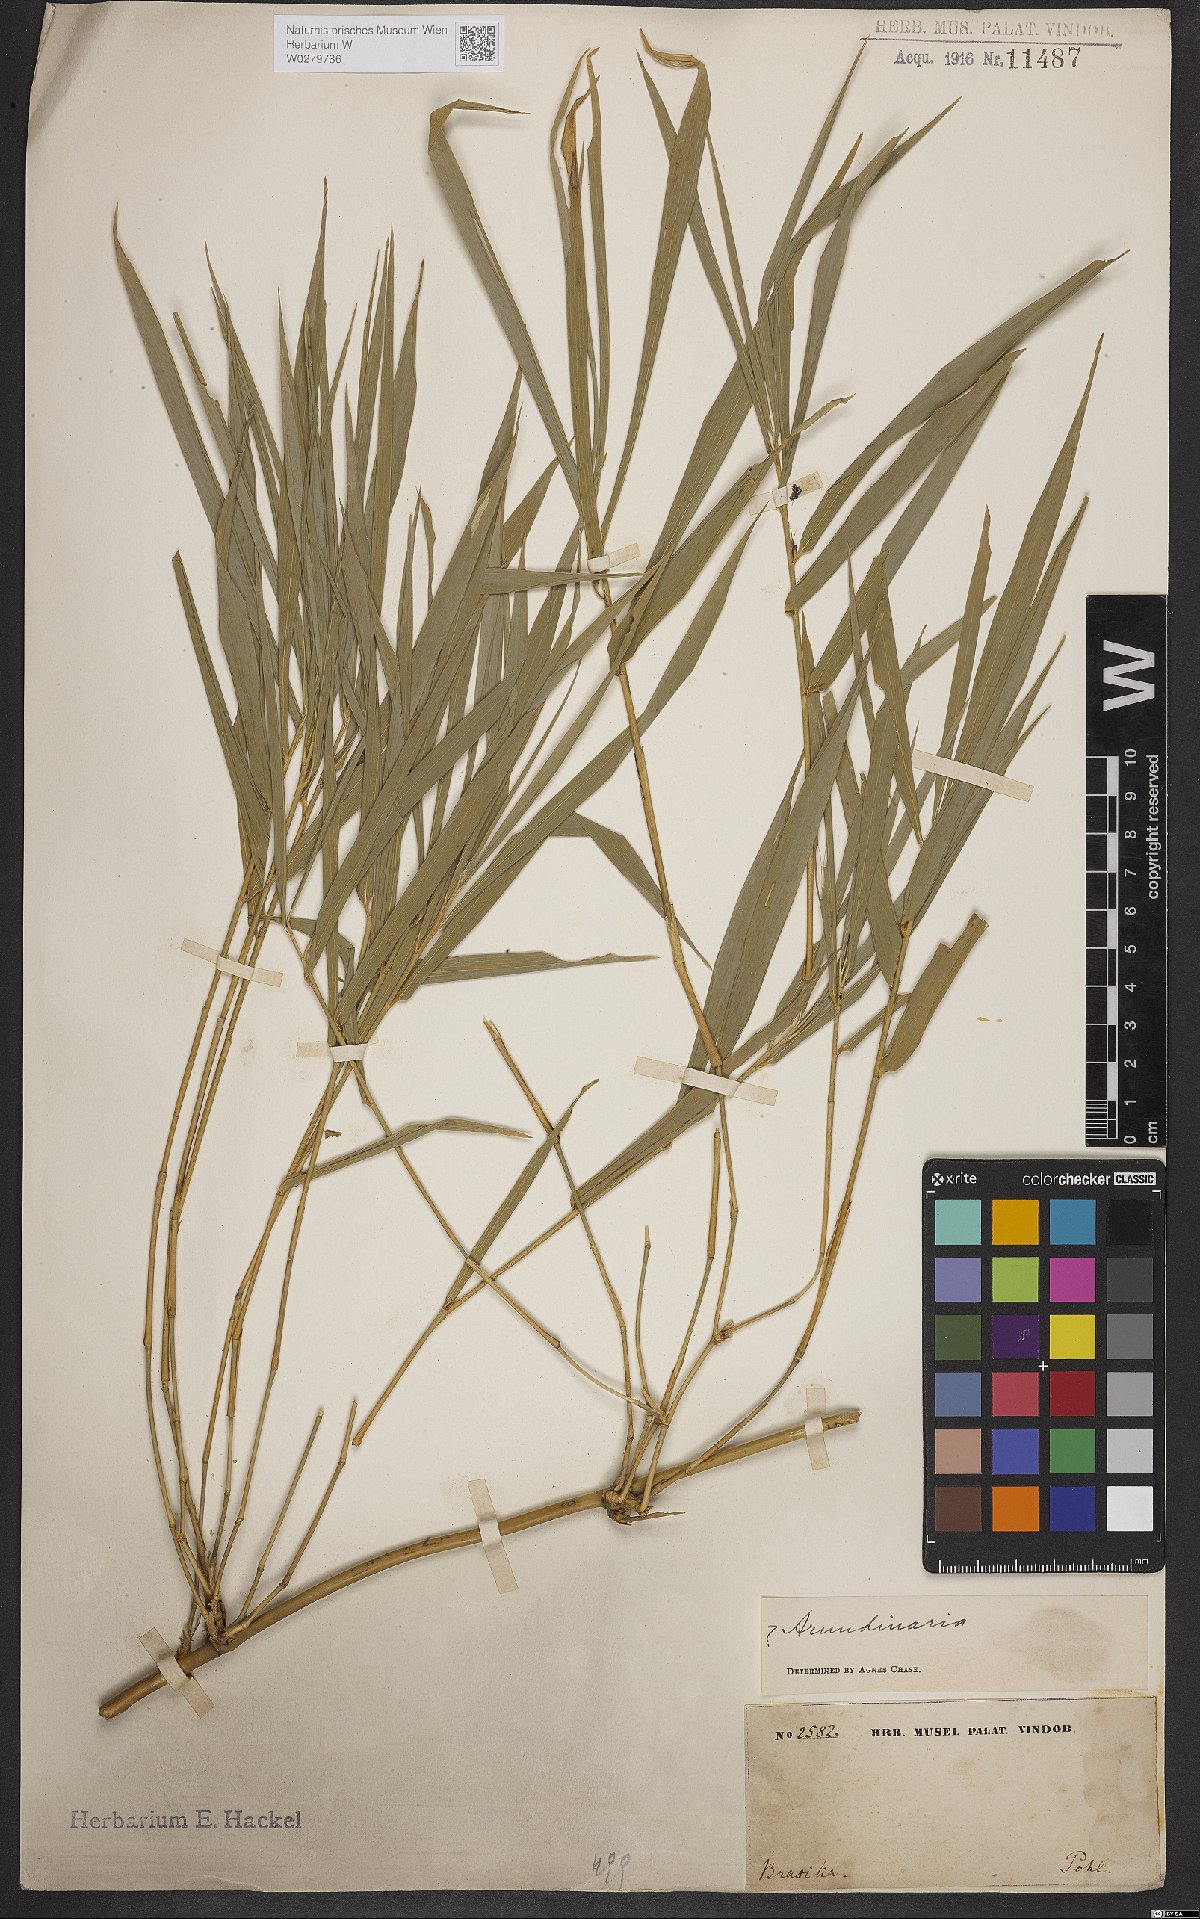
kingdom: Plantae
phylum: Tracheophyta
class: Liliopsida
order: Poales
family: Poaceae
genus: Arundinaria
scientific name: Arundinaria
